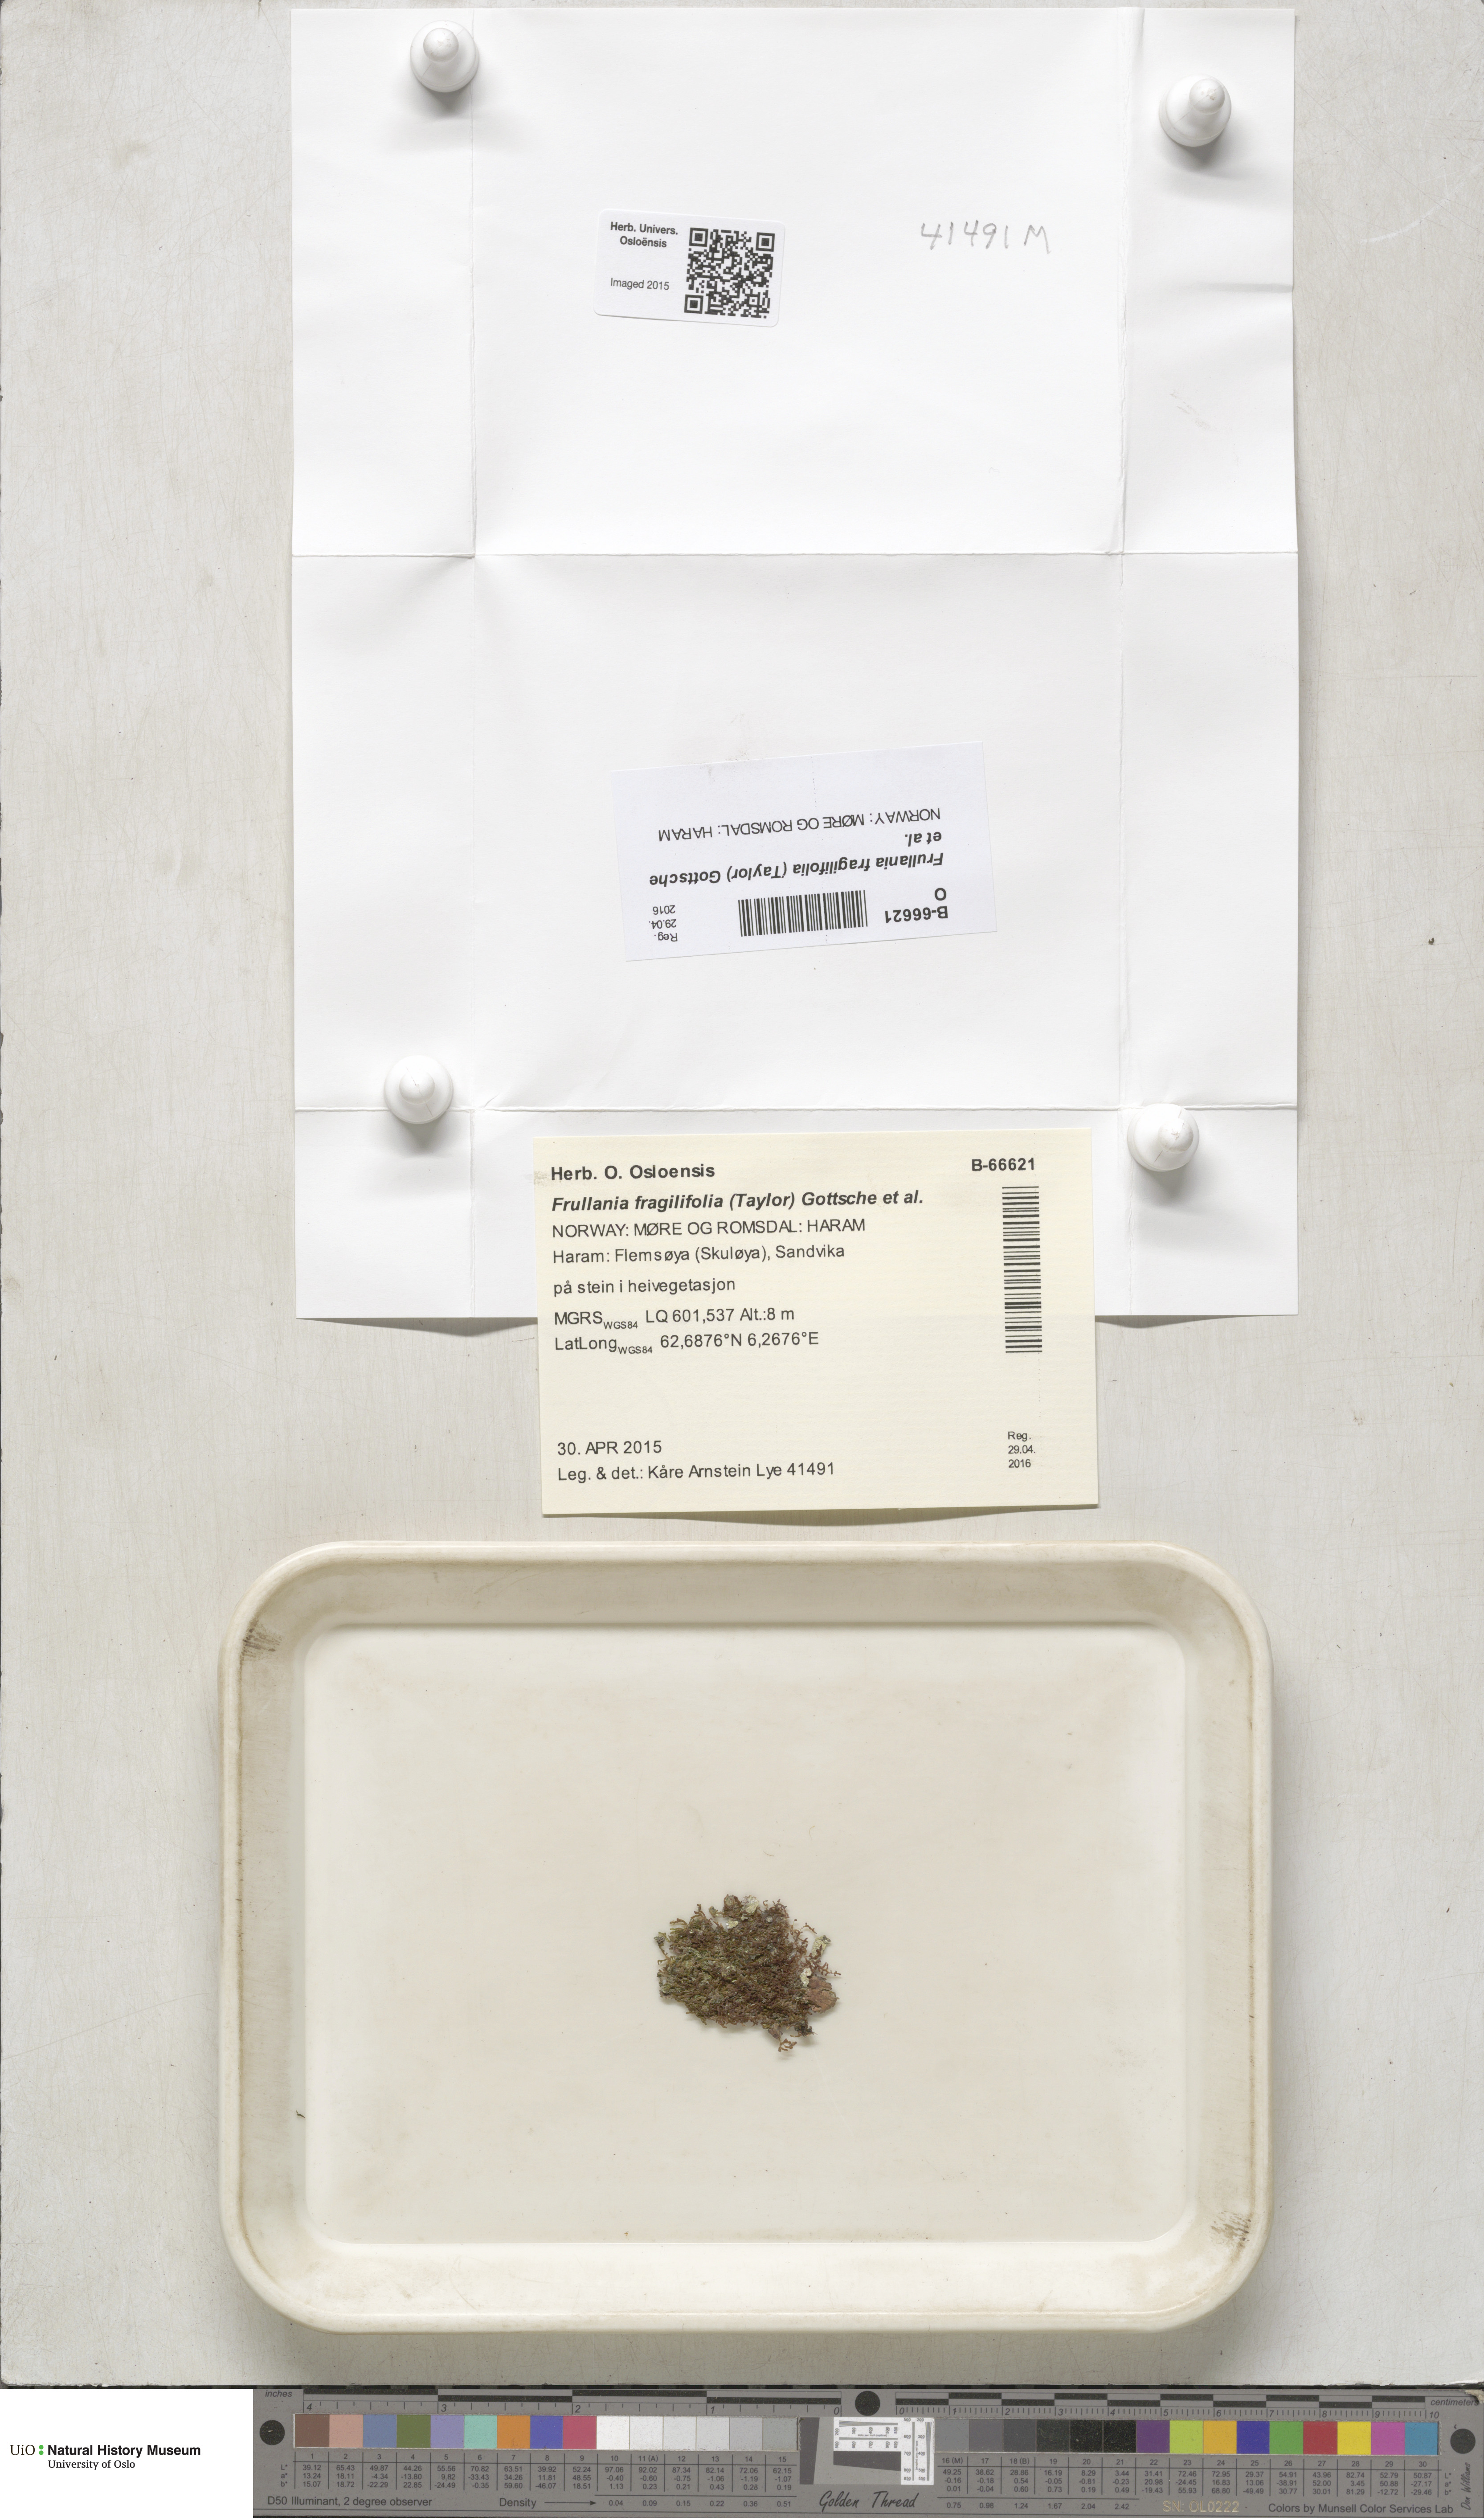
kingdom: Plantae
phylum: Marchantiophyta
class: Jungermanniopsida
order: Porellales
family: Frullaniaceae
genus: Frullania
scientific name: Frullania fragilifolia
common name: Spotty scalewort
